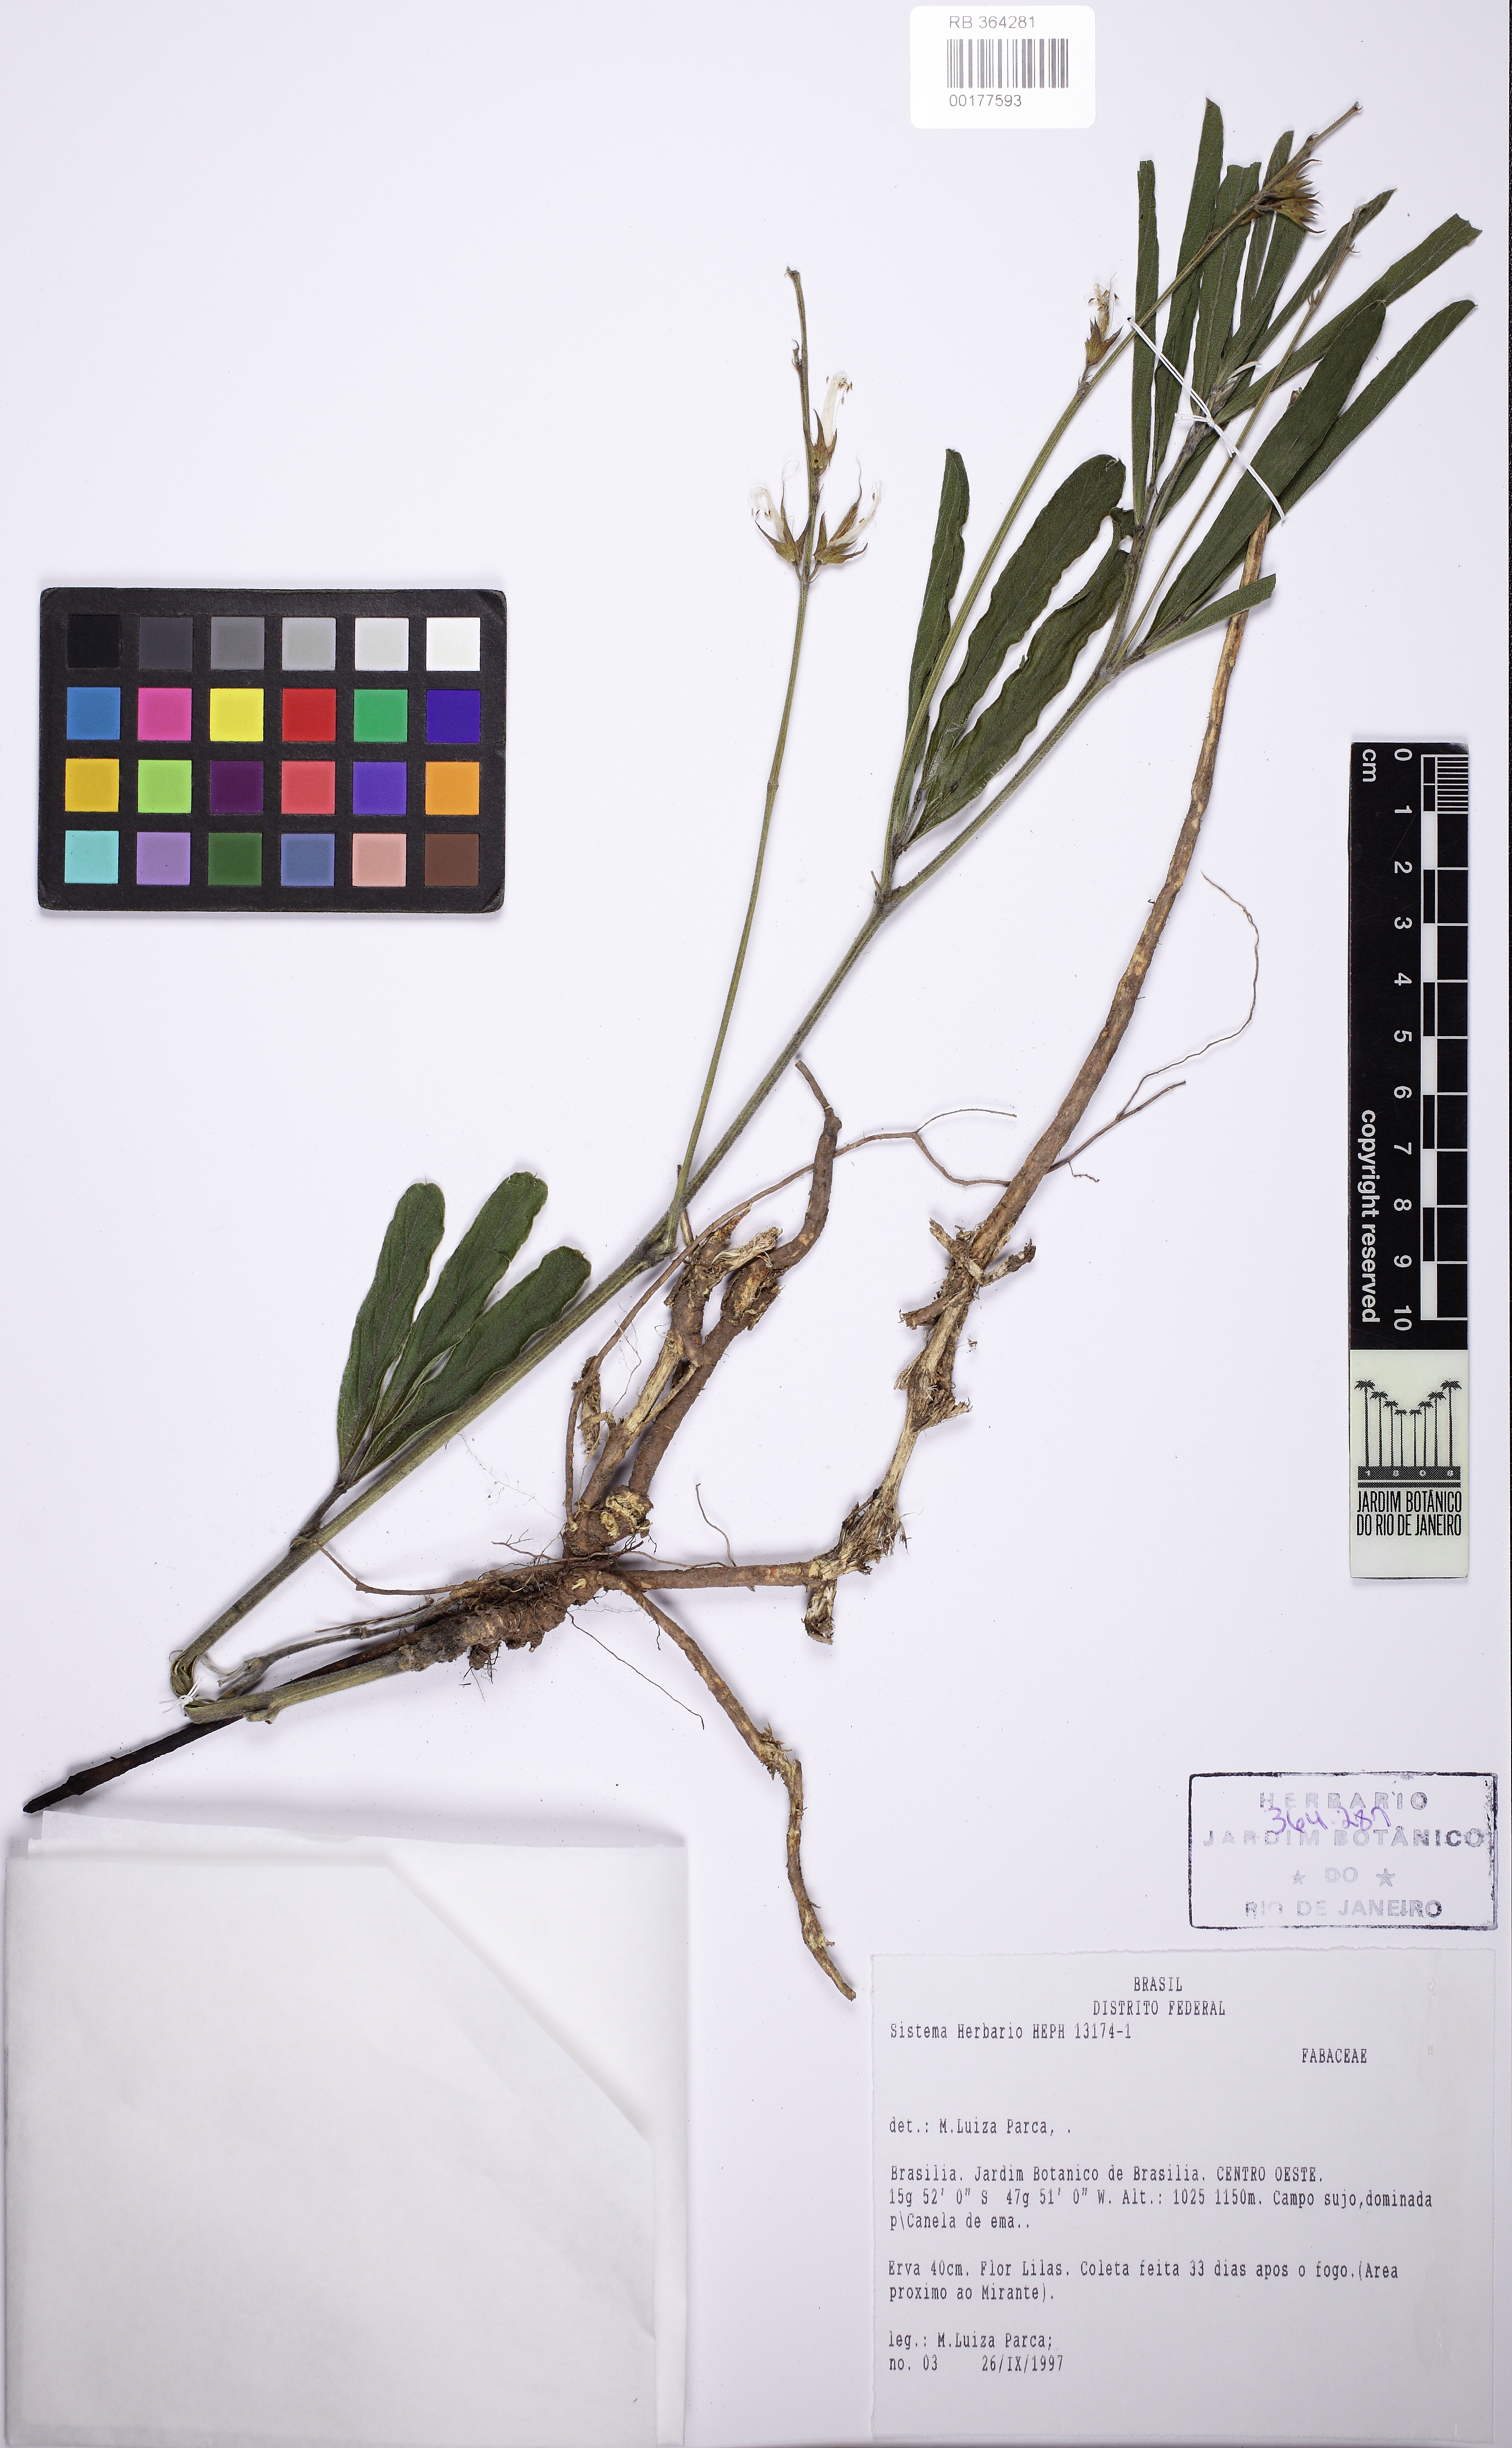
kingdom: Plantae
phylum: Tracheophyta
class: Magnoliopsida
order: Fabales
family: Fabaceae
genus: Cerradicola
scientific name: Cerradicola peduncularis
